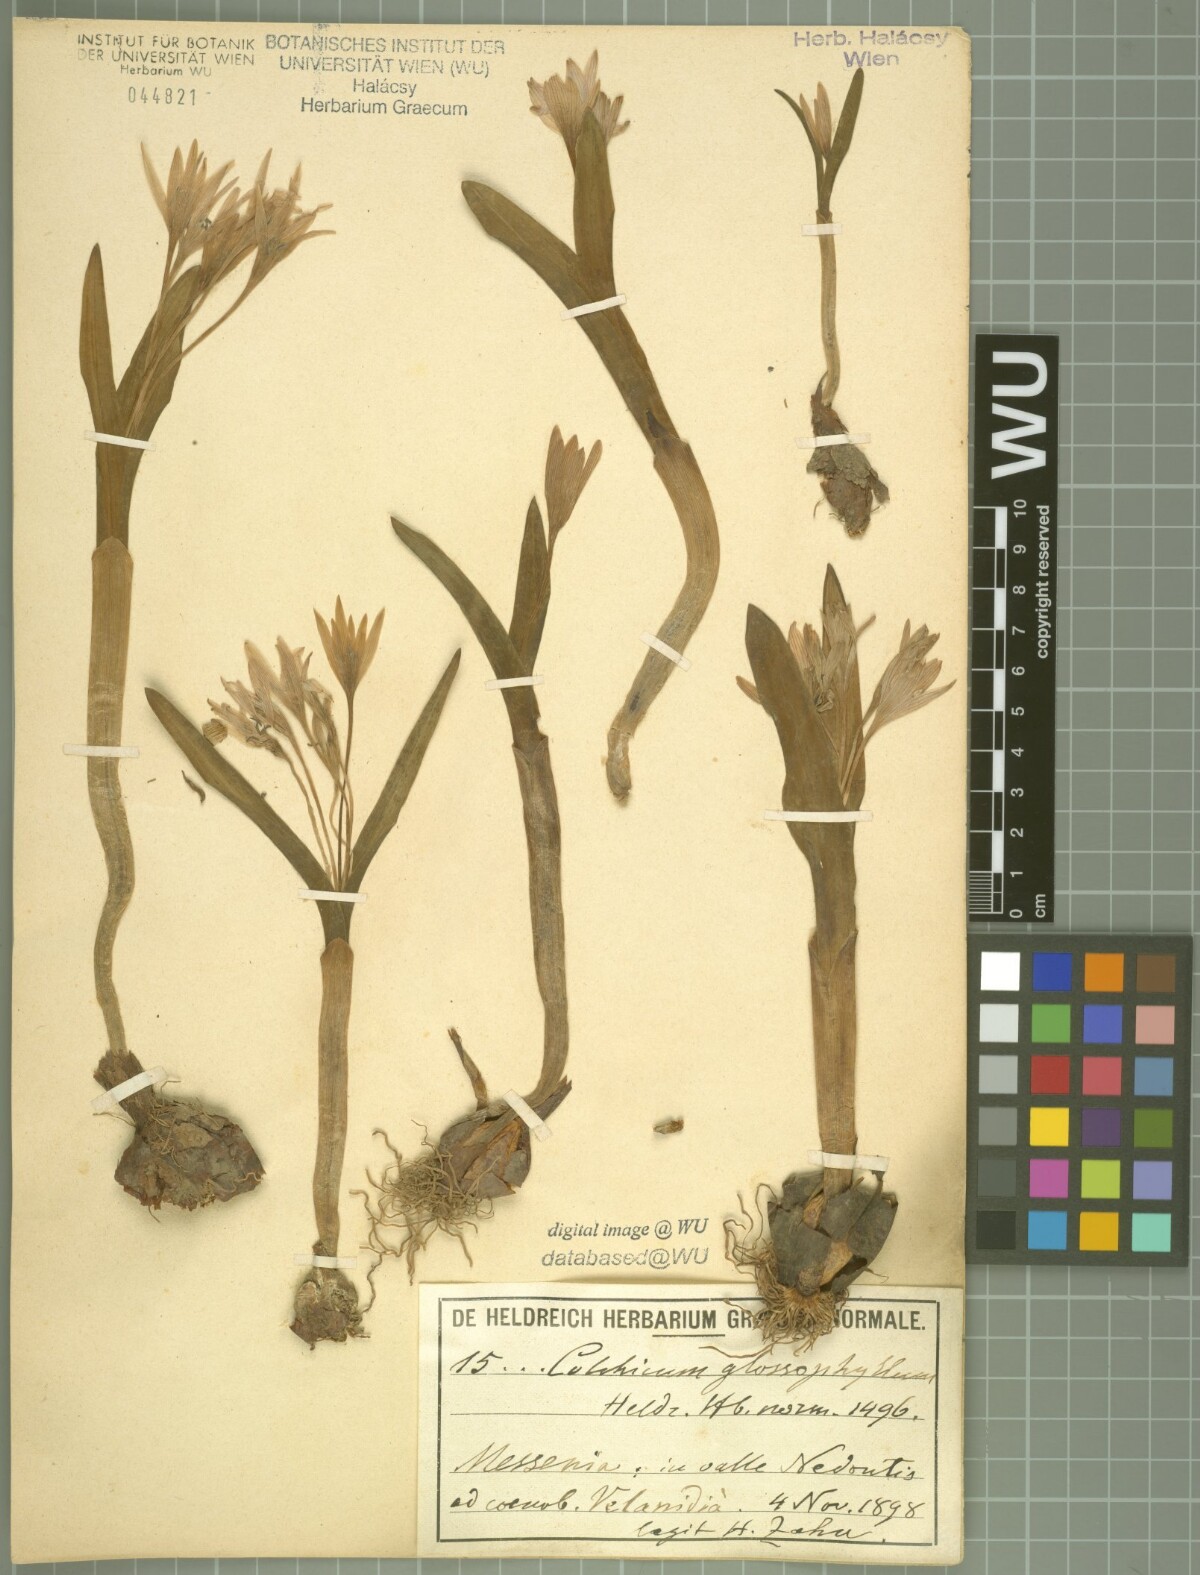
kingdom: Plantae
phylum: Tracheophyta
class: Liliopsida
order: Liliales
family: Colchicaceae
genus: Colchicum
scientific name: Colchicum cupanii
